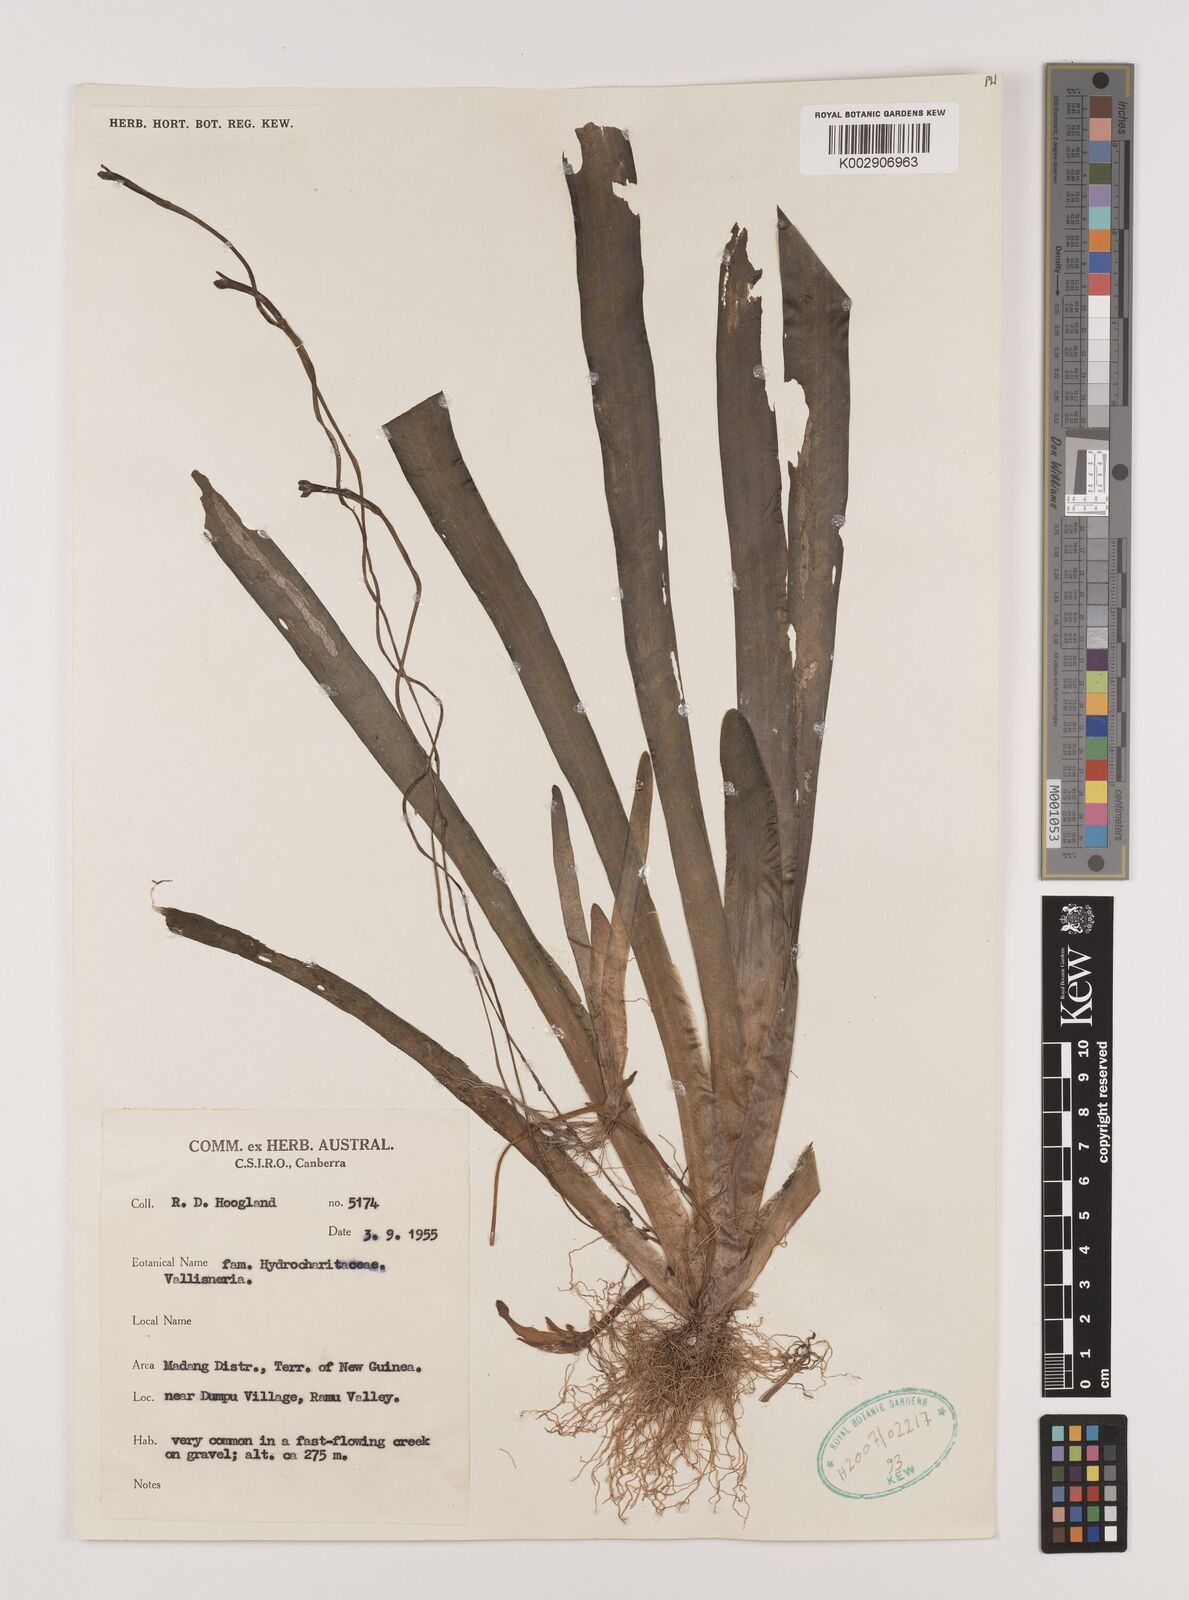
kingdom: Plantae
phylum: Tracheophyta
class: Liliopsida
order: Alismatales
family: Hydrocharitaceae
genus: Vallisneria
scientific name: Vallisneria
